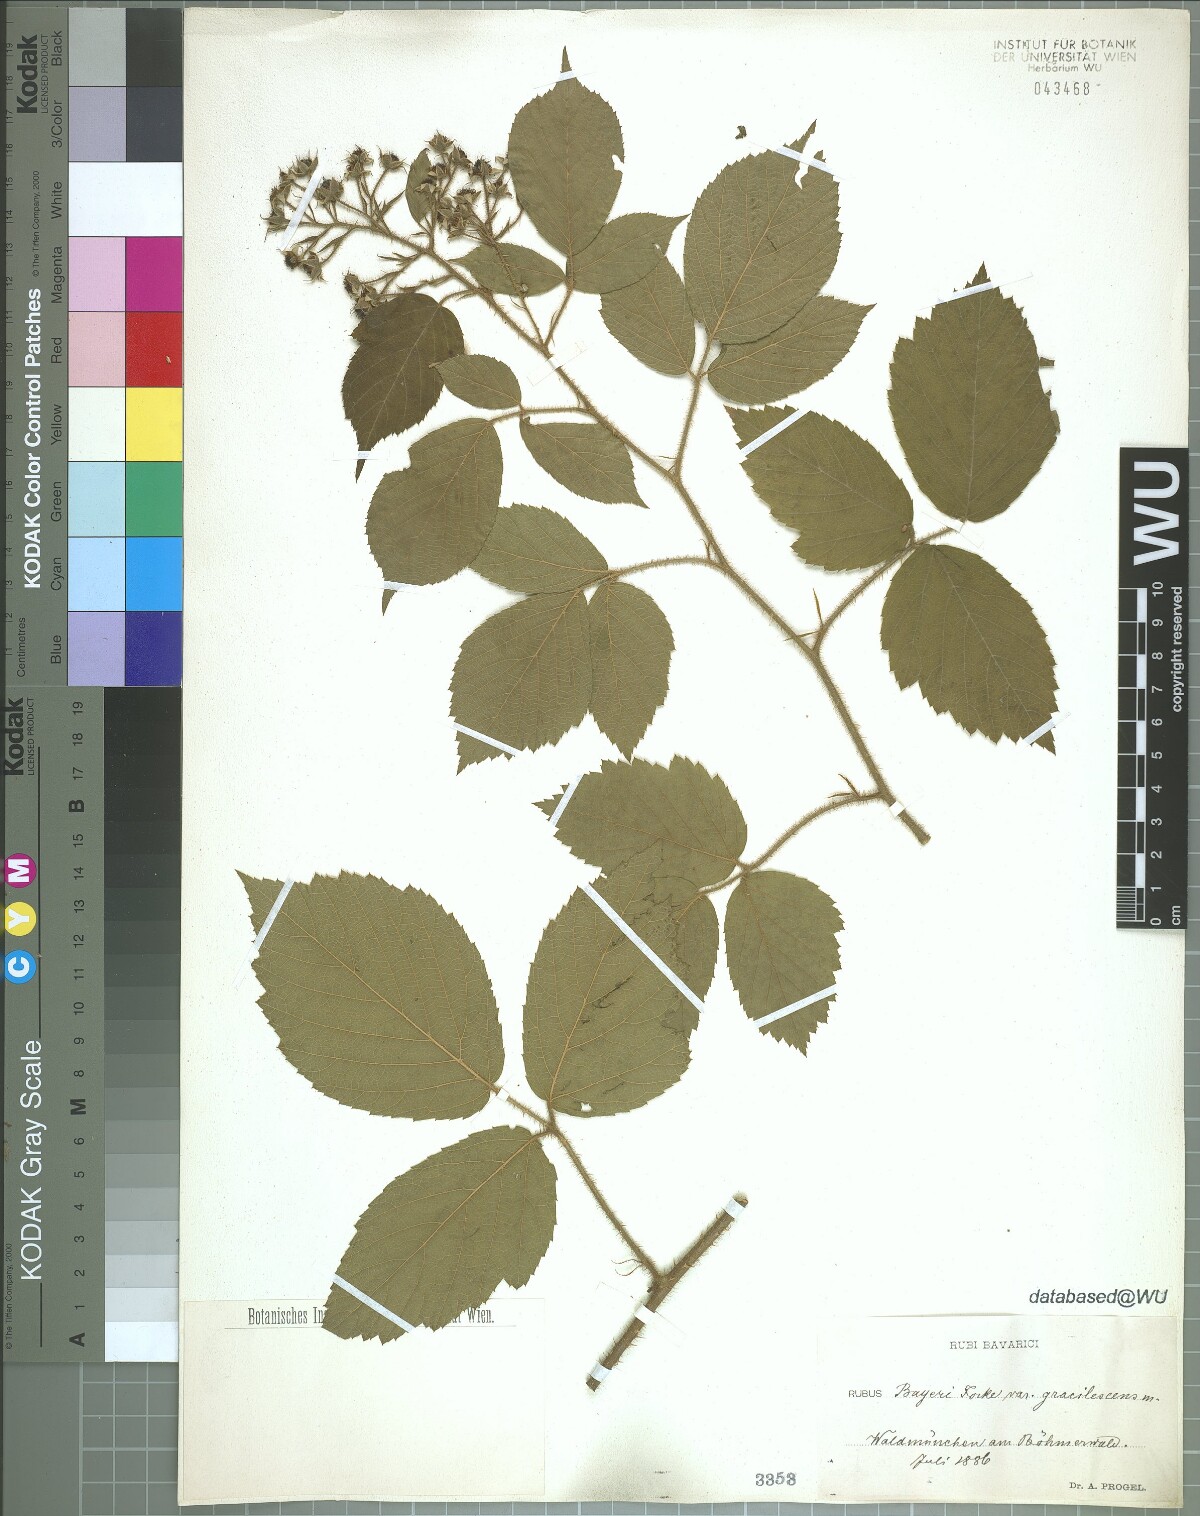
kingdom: Plantae
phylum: Tracheophyta
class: Magnoliopsida
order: Rosales
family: Rosaceae
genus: Rubus
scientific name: Rubus rivularis
